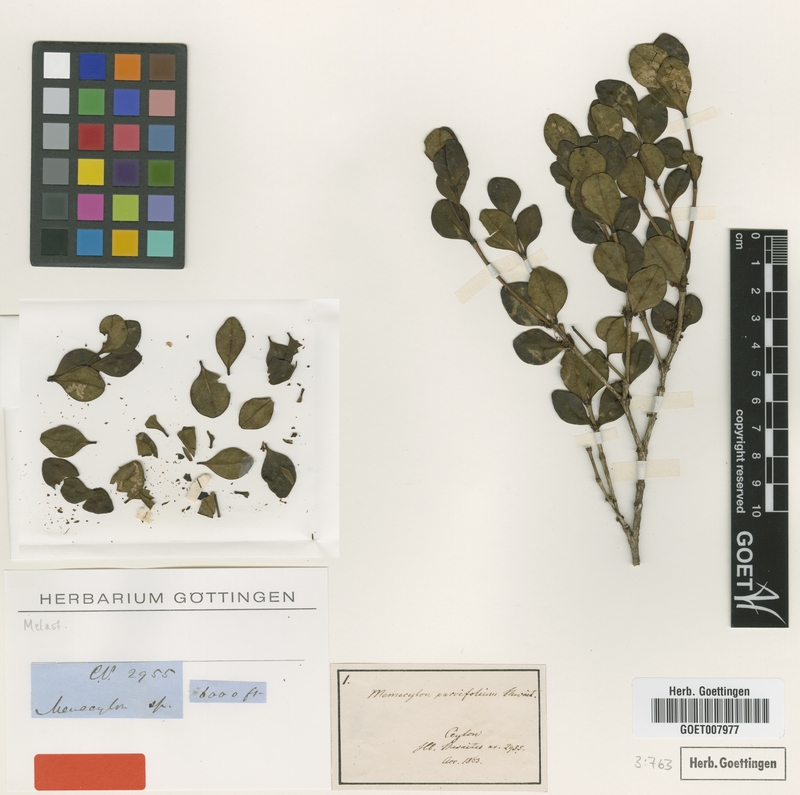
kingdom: Plantae
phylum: Tracheophyta
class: Magnoliopsida
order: Myrtales
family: Melastomataceae
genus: Memecylon
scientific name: Memecylon parvifolium
